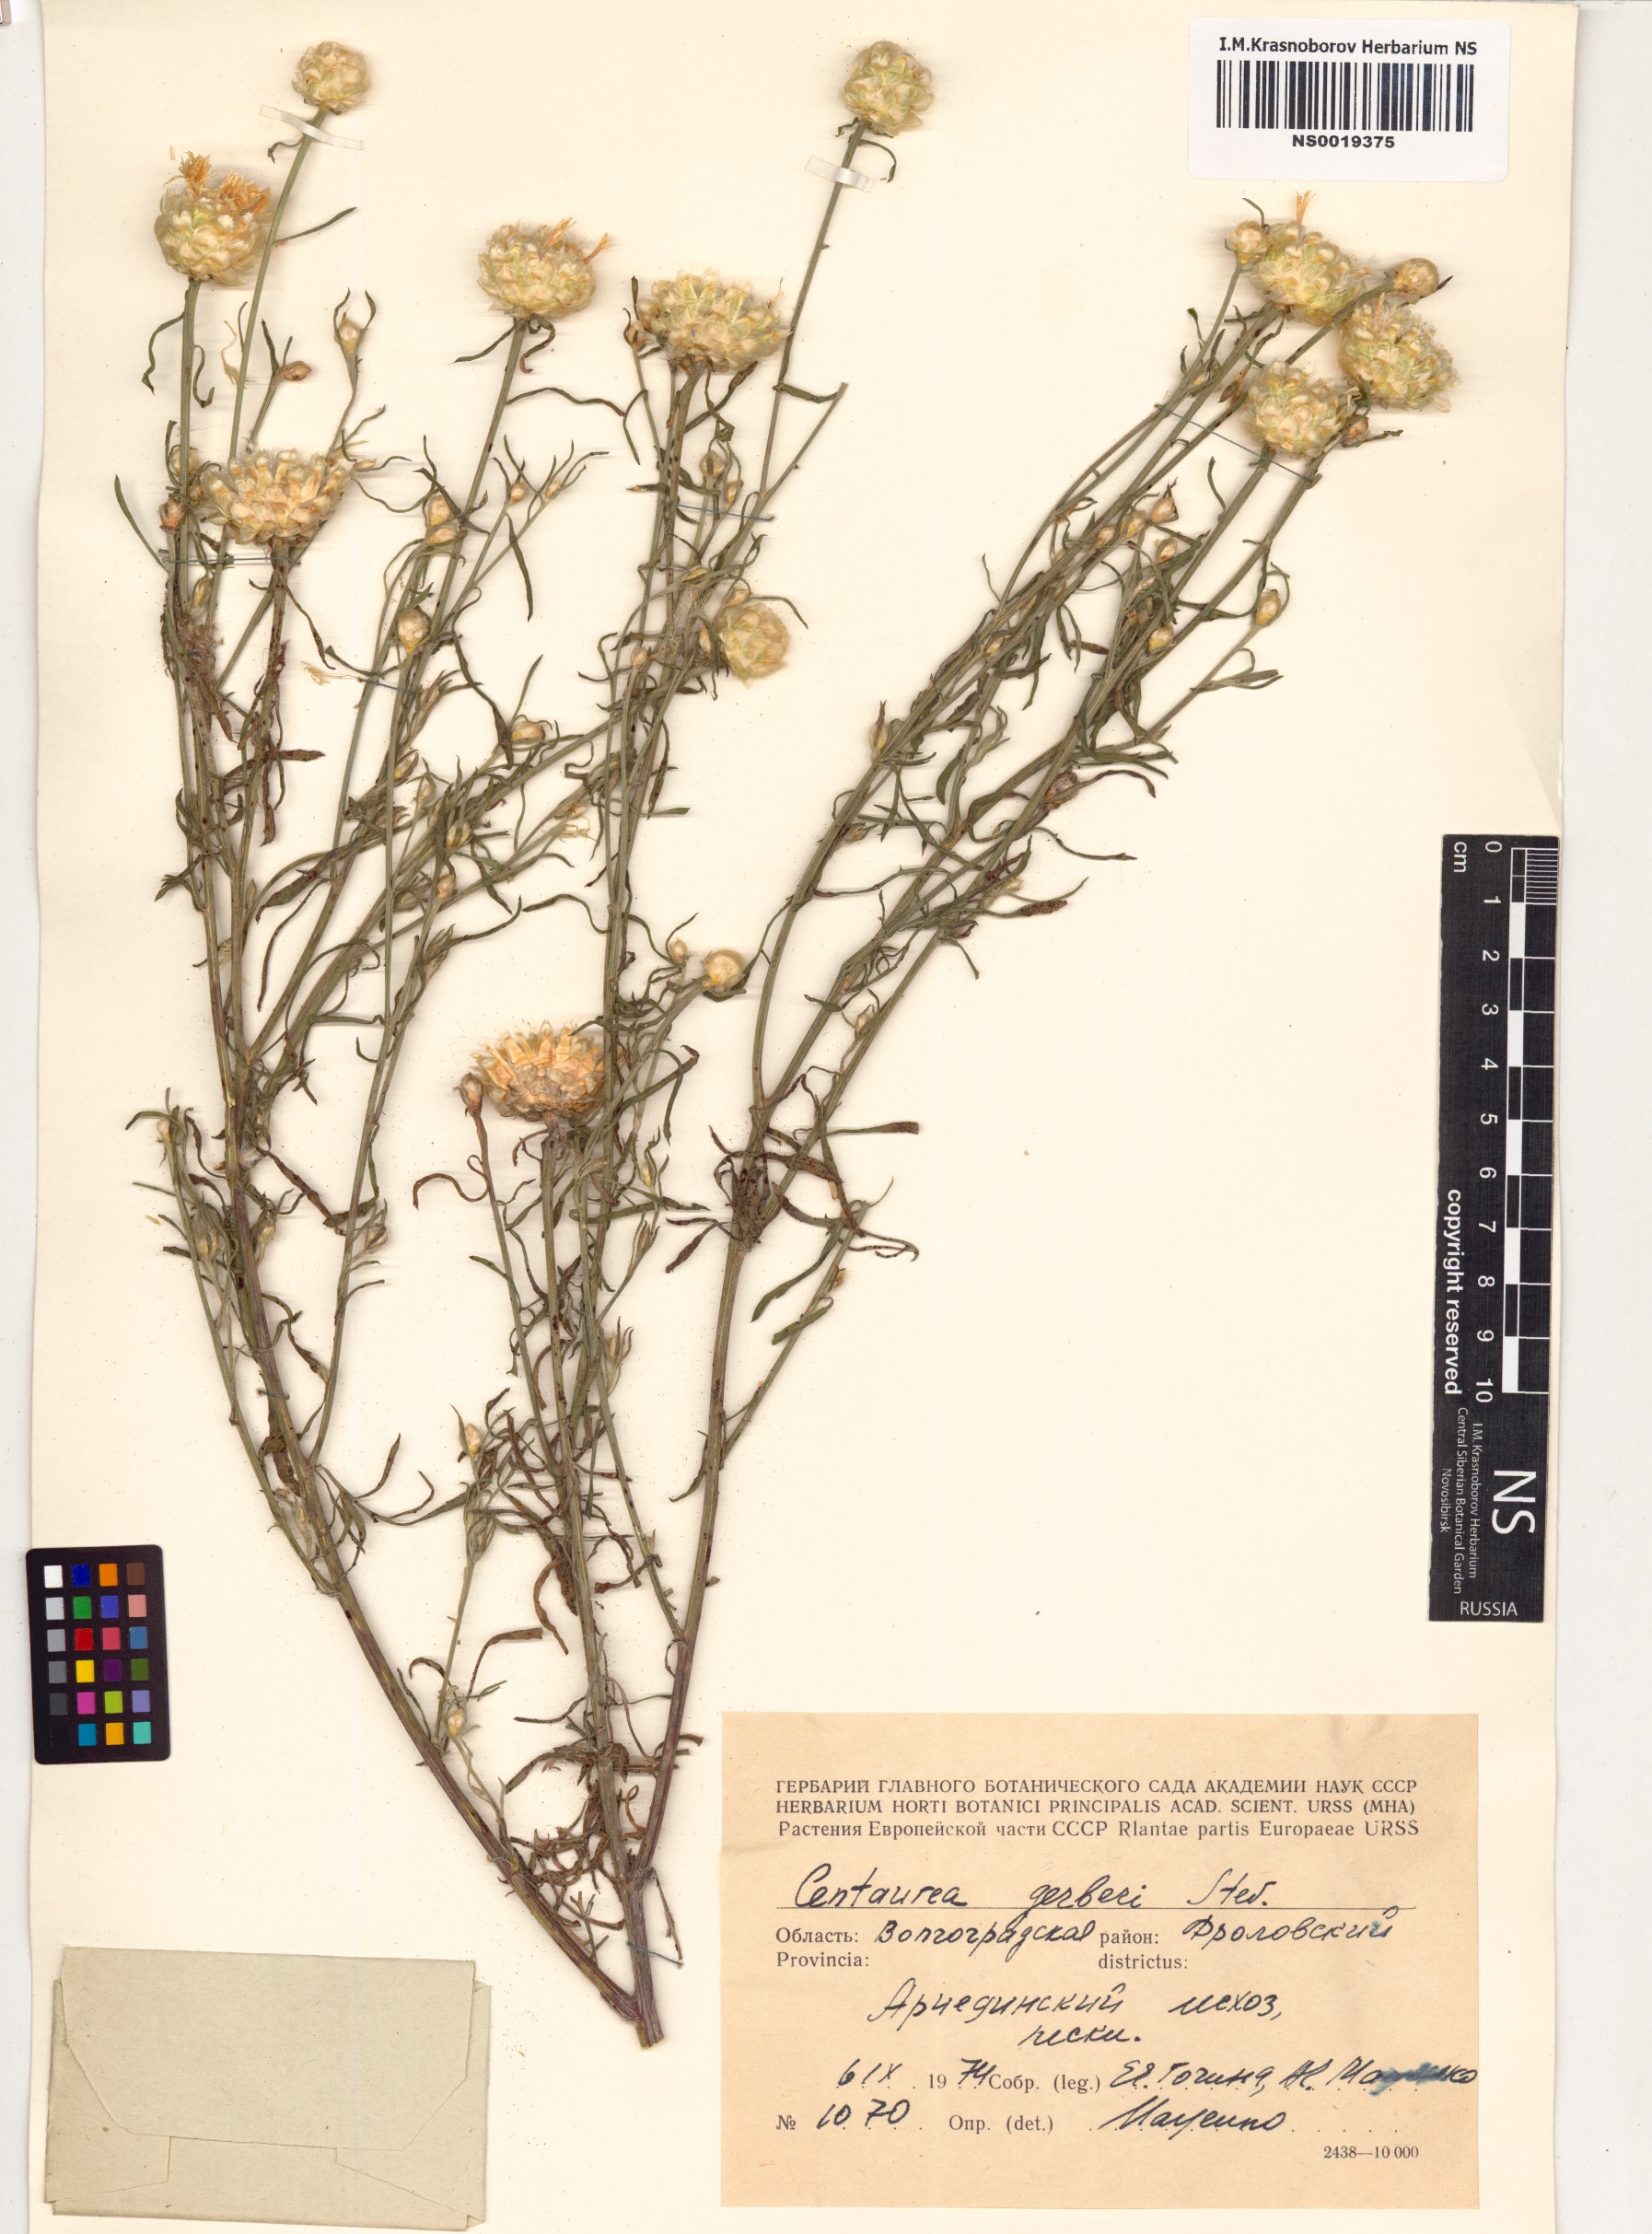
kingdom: Plantae
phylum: Tracheophyta
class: Magnoliopsida
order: Asterales
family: Asteraceae
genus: Centaurea
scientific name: Centaurea gerberi
